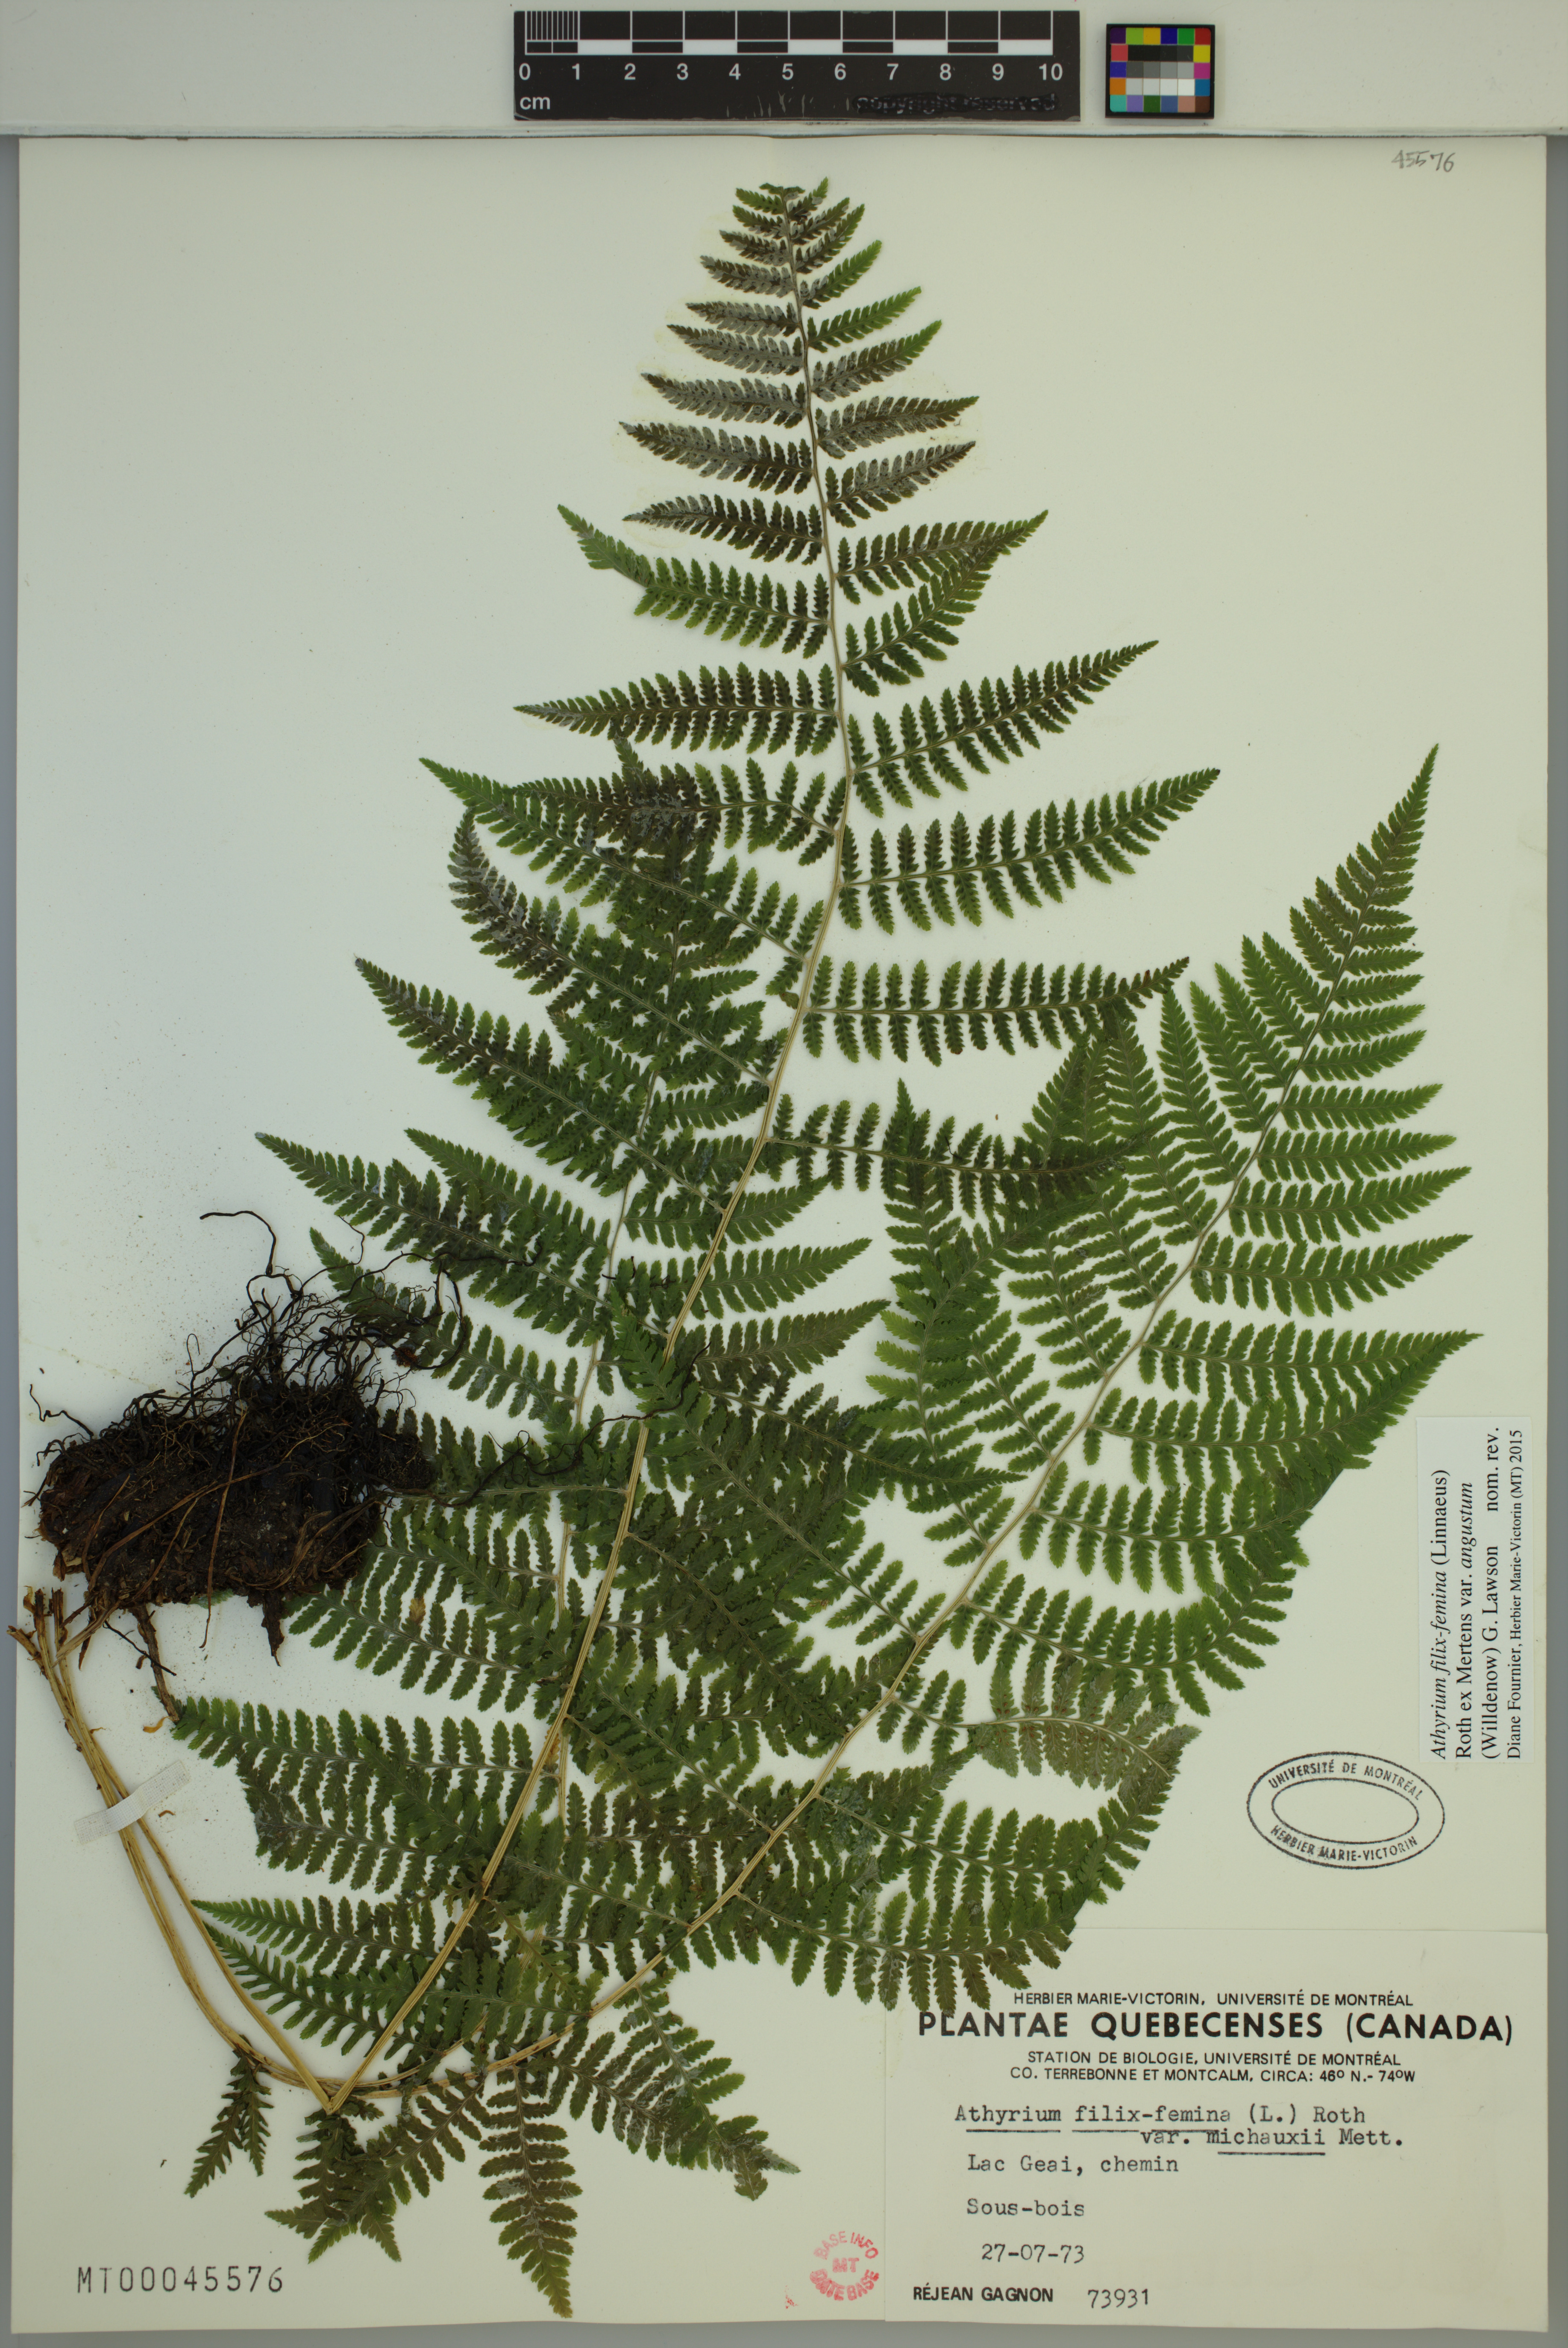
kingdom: Plantae
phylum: Tracheophyta
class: Polypodiopsida
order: Polypodiales
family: Athyriaceae
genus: Athyrium
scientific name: Athyrium angustum
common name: Northern lady fern
